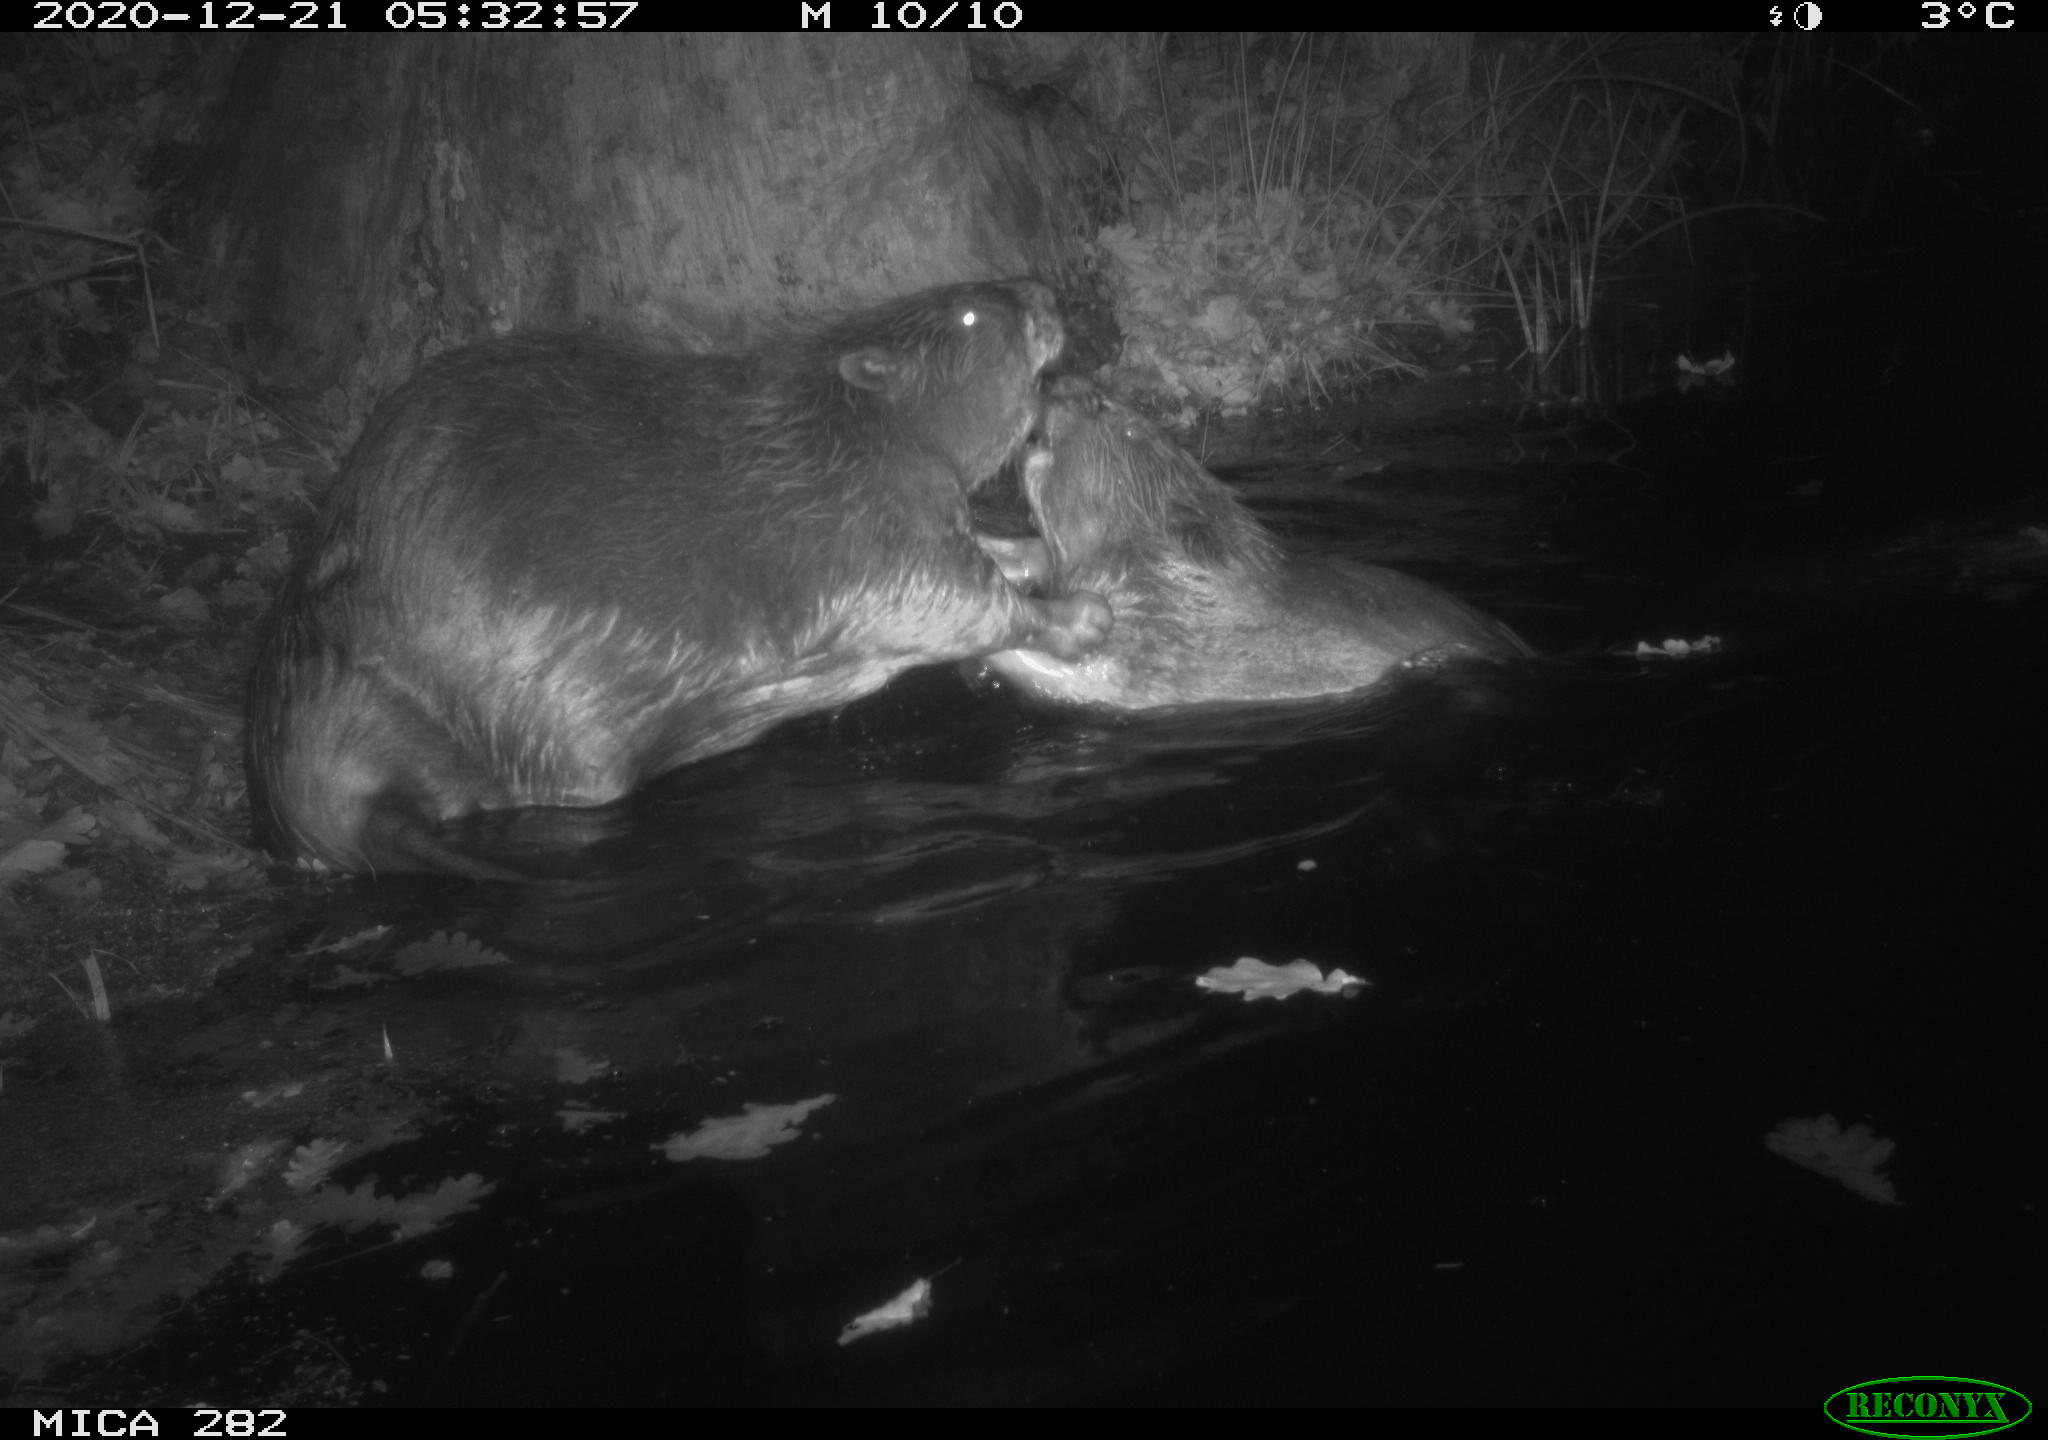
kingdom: Animalia
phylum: Chordata
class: Mammalia
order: Rodentia
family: Castoridae
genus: Castor
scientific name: Castor fiber
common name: Eurasian beaver
